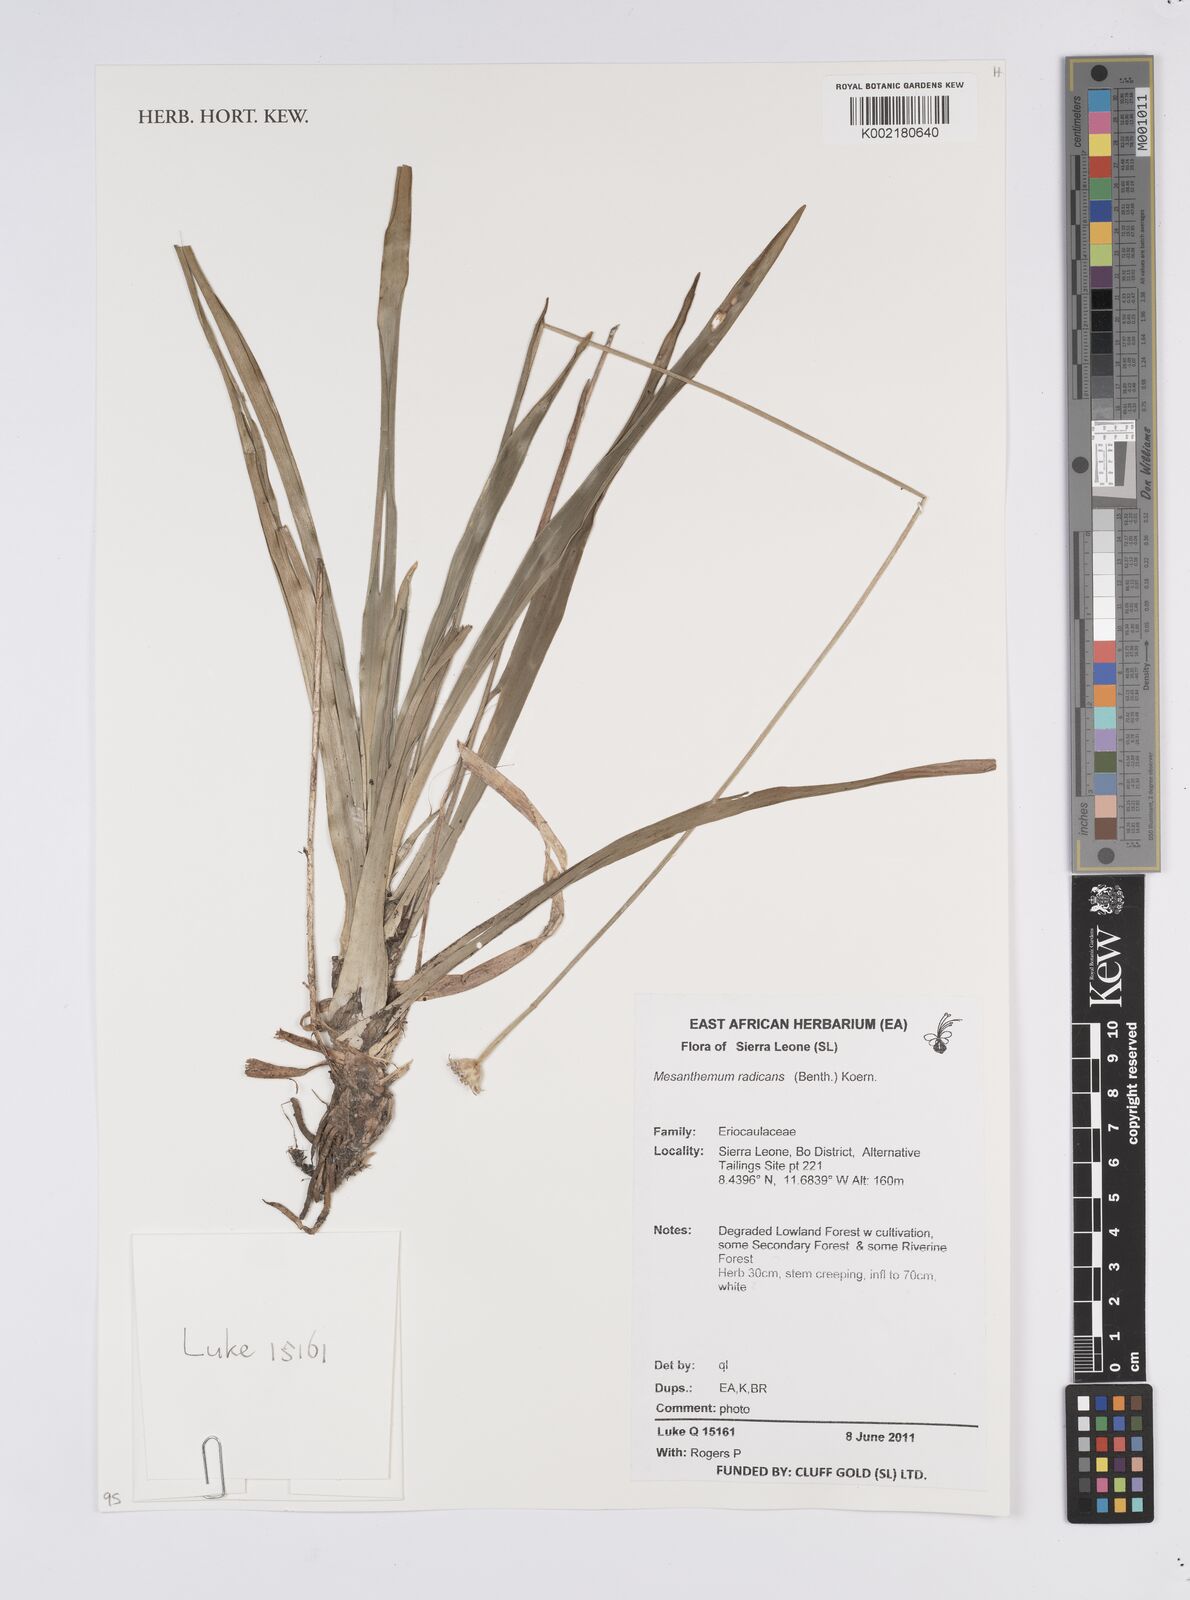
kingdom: Plantae
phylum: Tracheophyta
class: Liliopsida
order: Poales
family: Eriocaulaceae
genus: Mesanthemum
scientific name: Mesanthemum radicans
